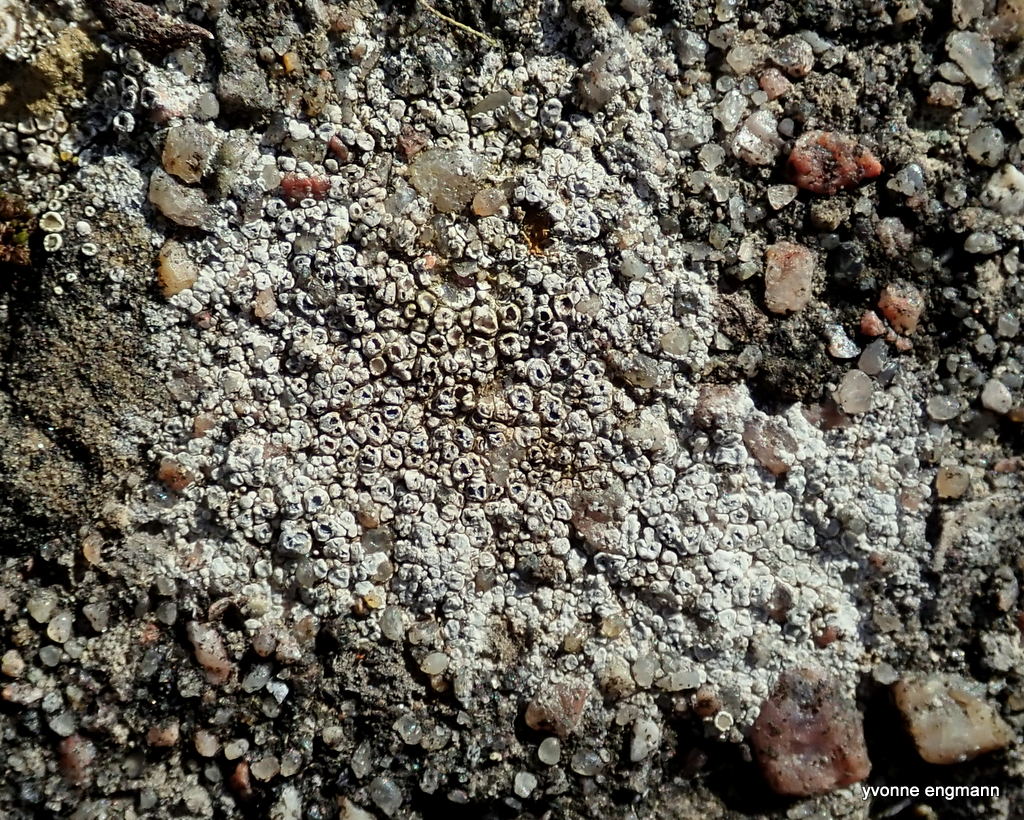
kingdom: Fungi
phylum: Ascomycota
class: Lecanoromycetes
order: Pertusariales
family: Megasporaceae
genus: Circinaria
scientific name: Circinaria contorta
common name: indviklet hulskivelav
